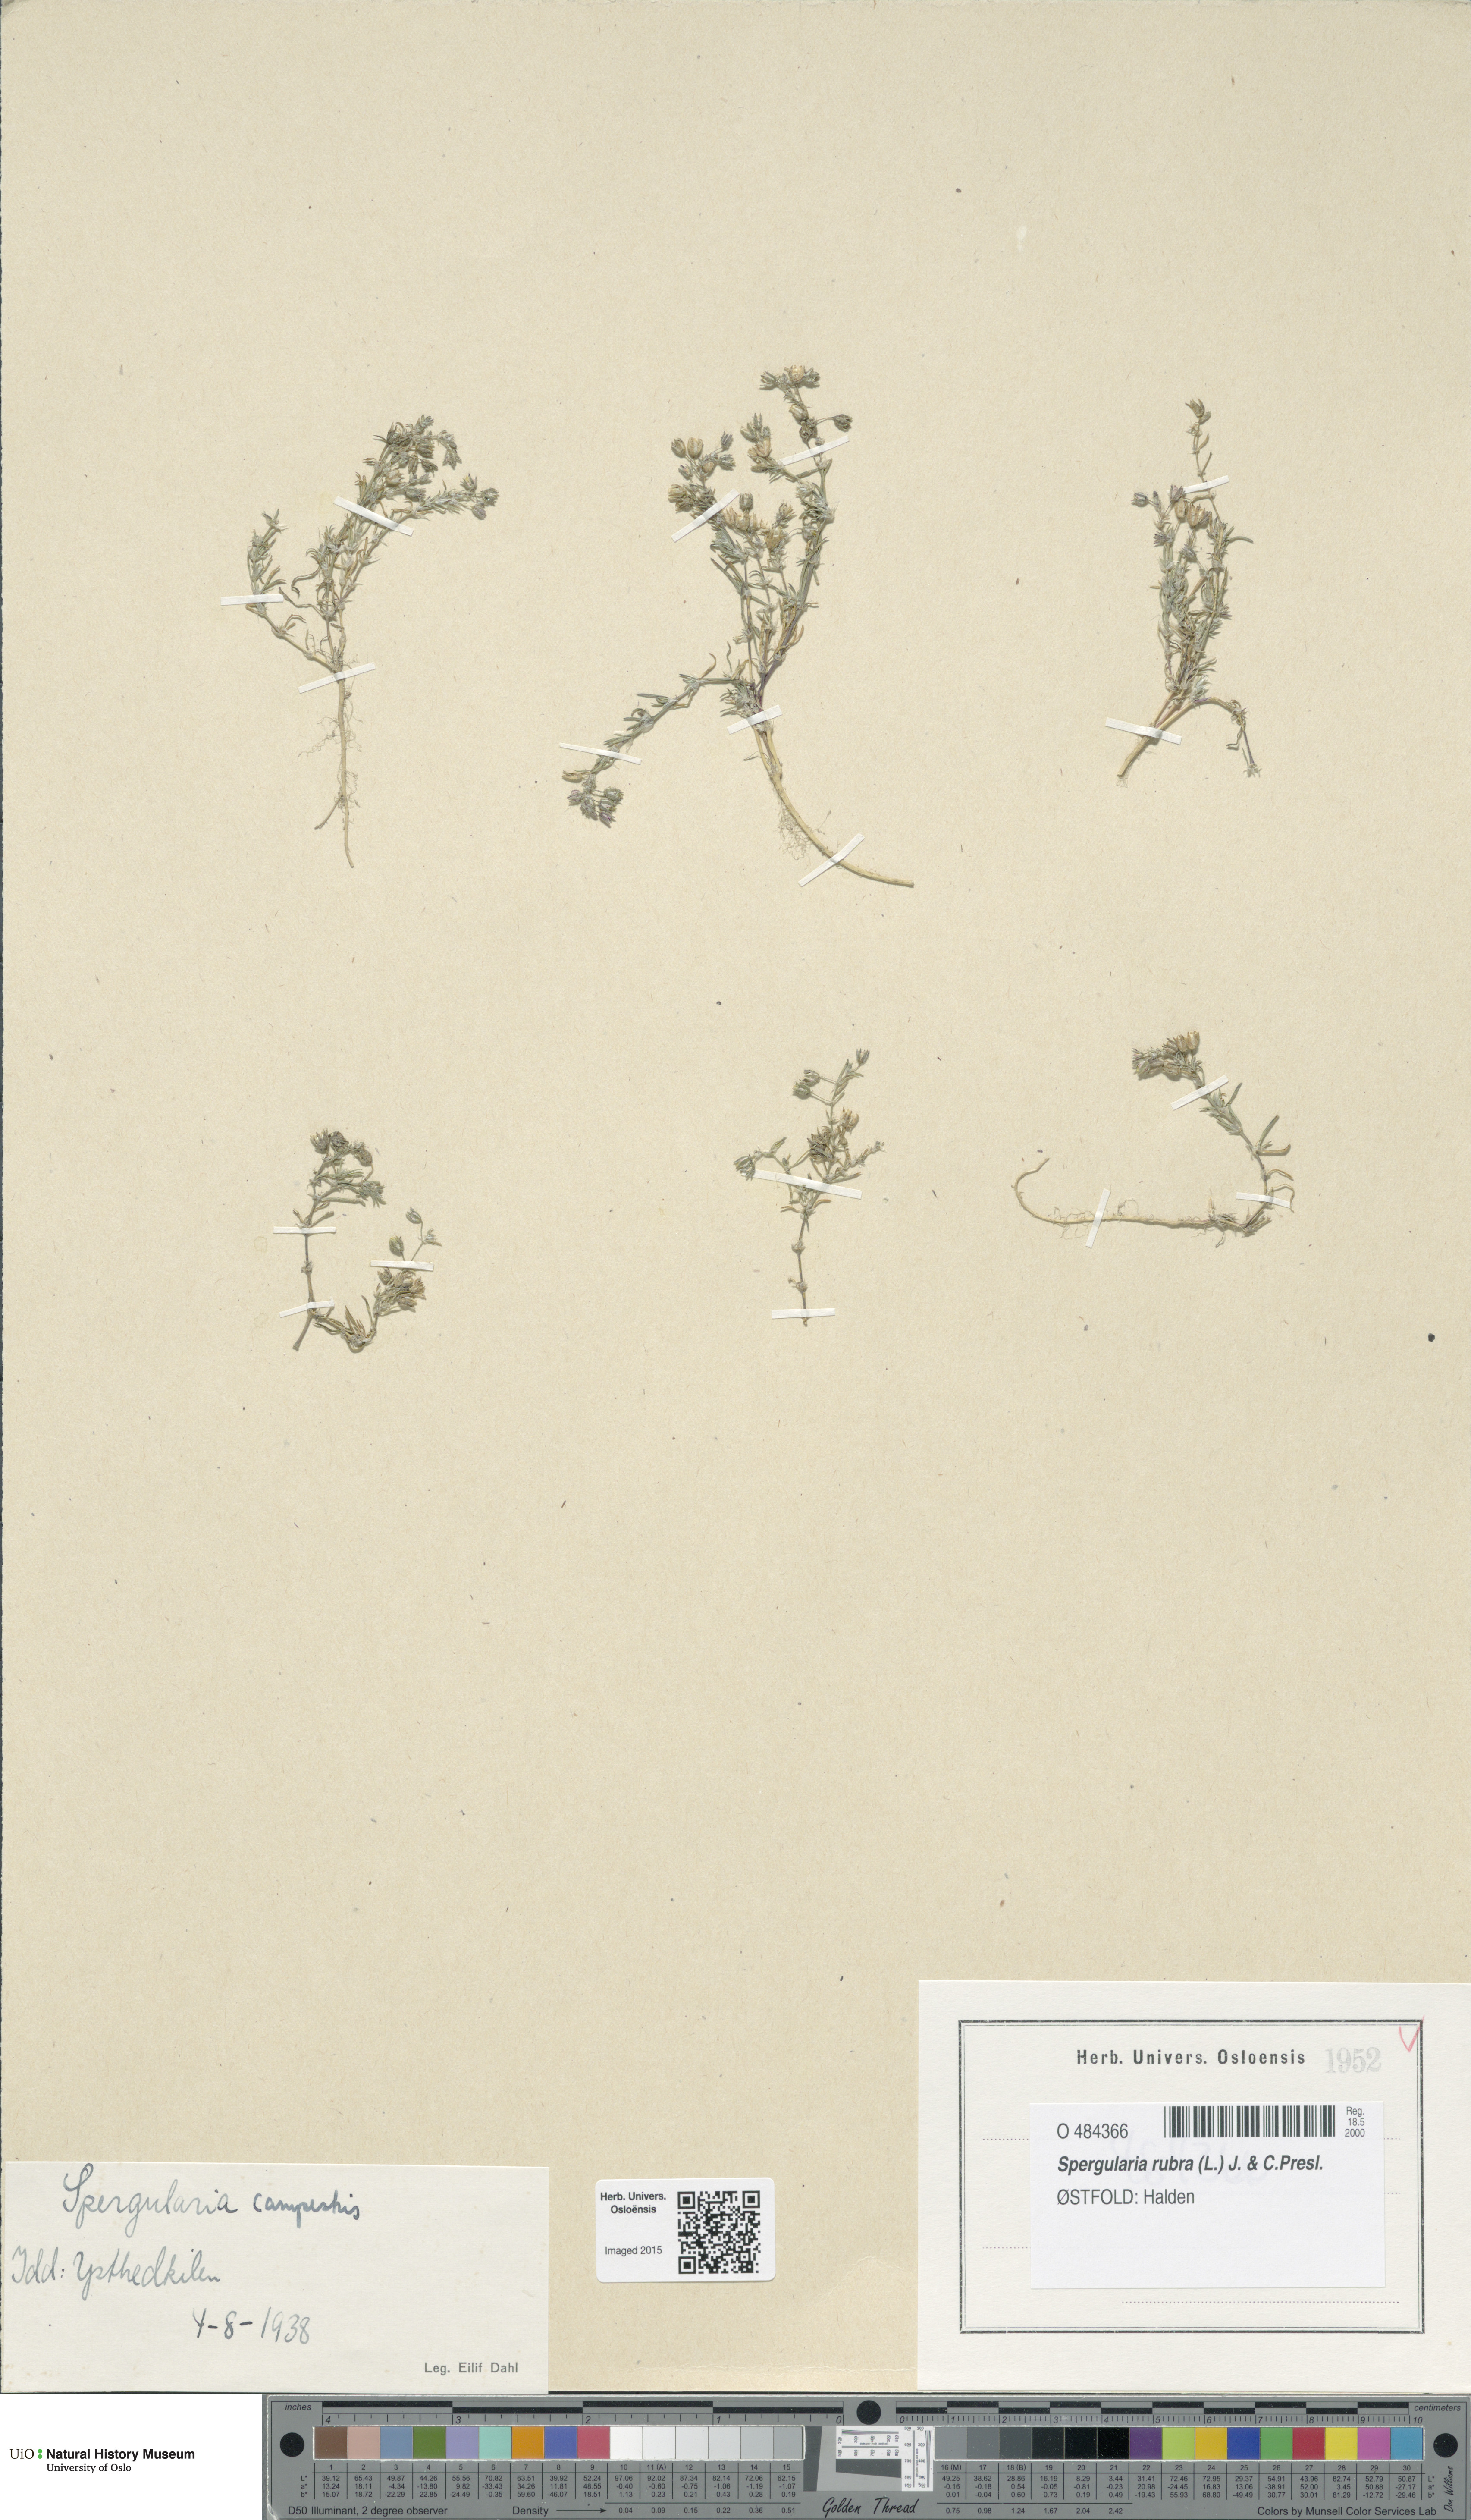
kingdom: Plantae
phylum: Tracheophyta
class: Magnoliopsida
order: Caryophyllales
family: Caryophyllaceae
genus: Spergularia
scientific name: Spergularia rubra
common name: Red sand-spurrey
